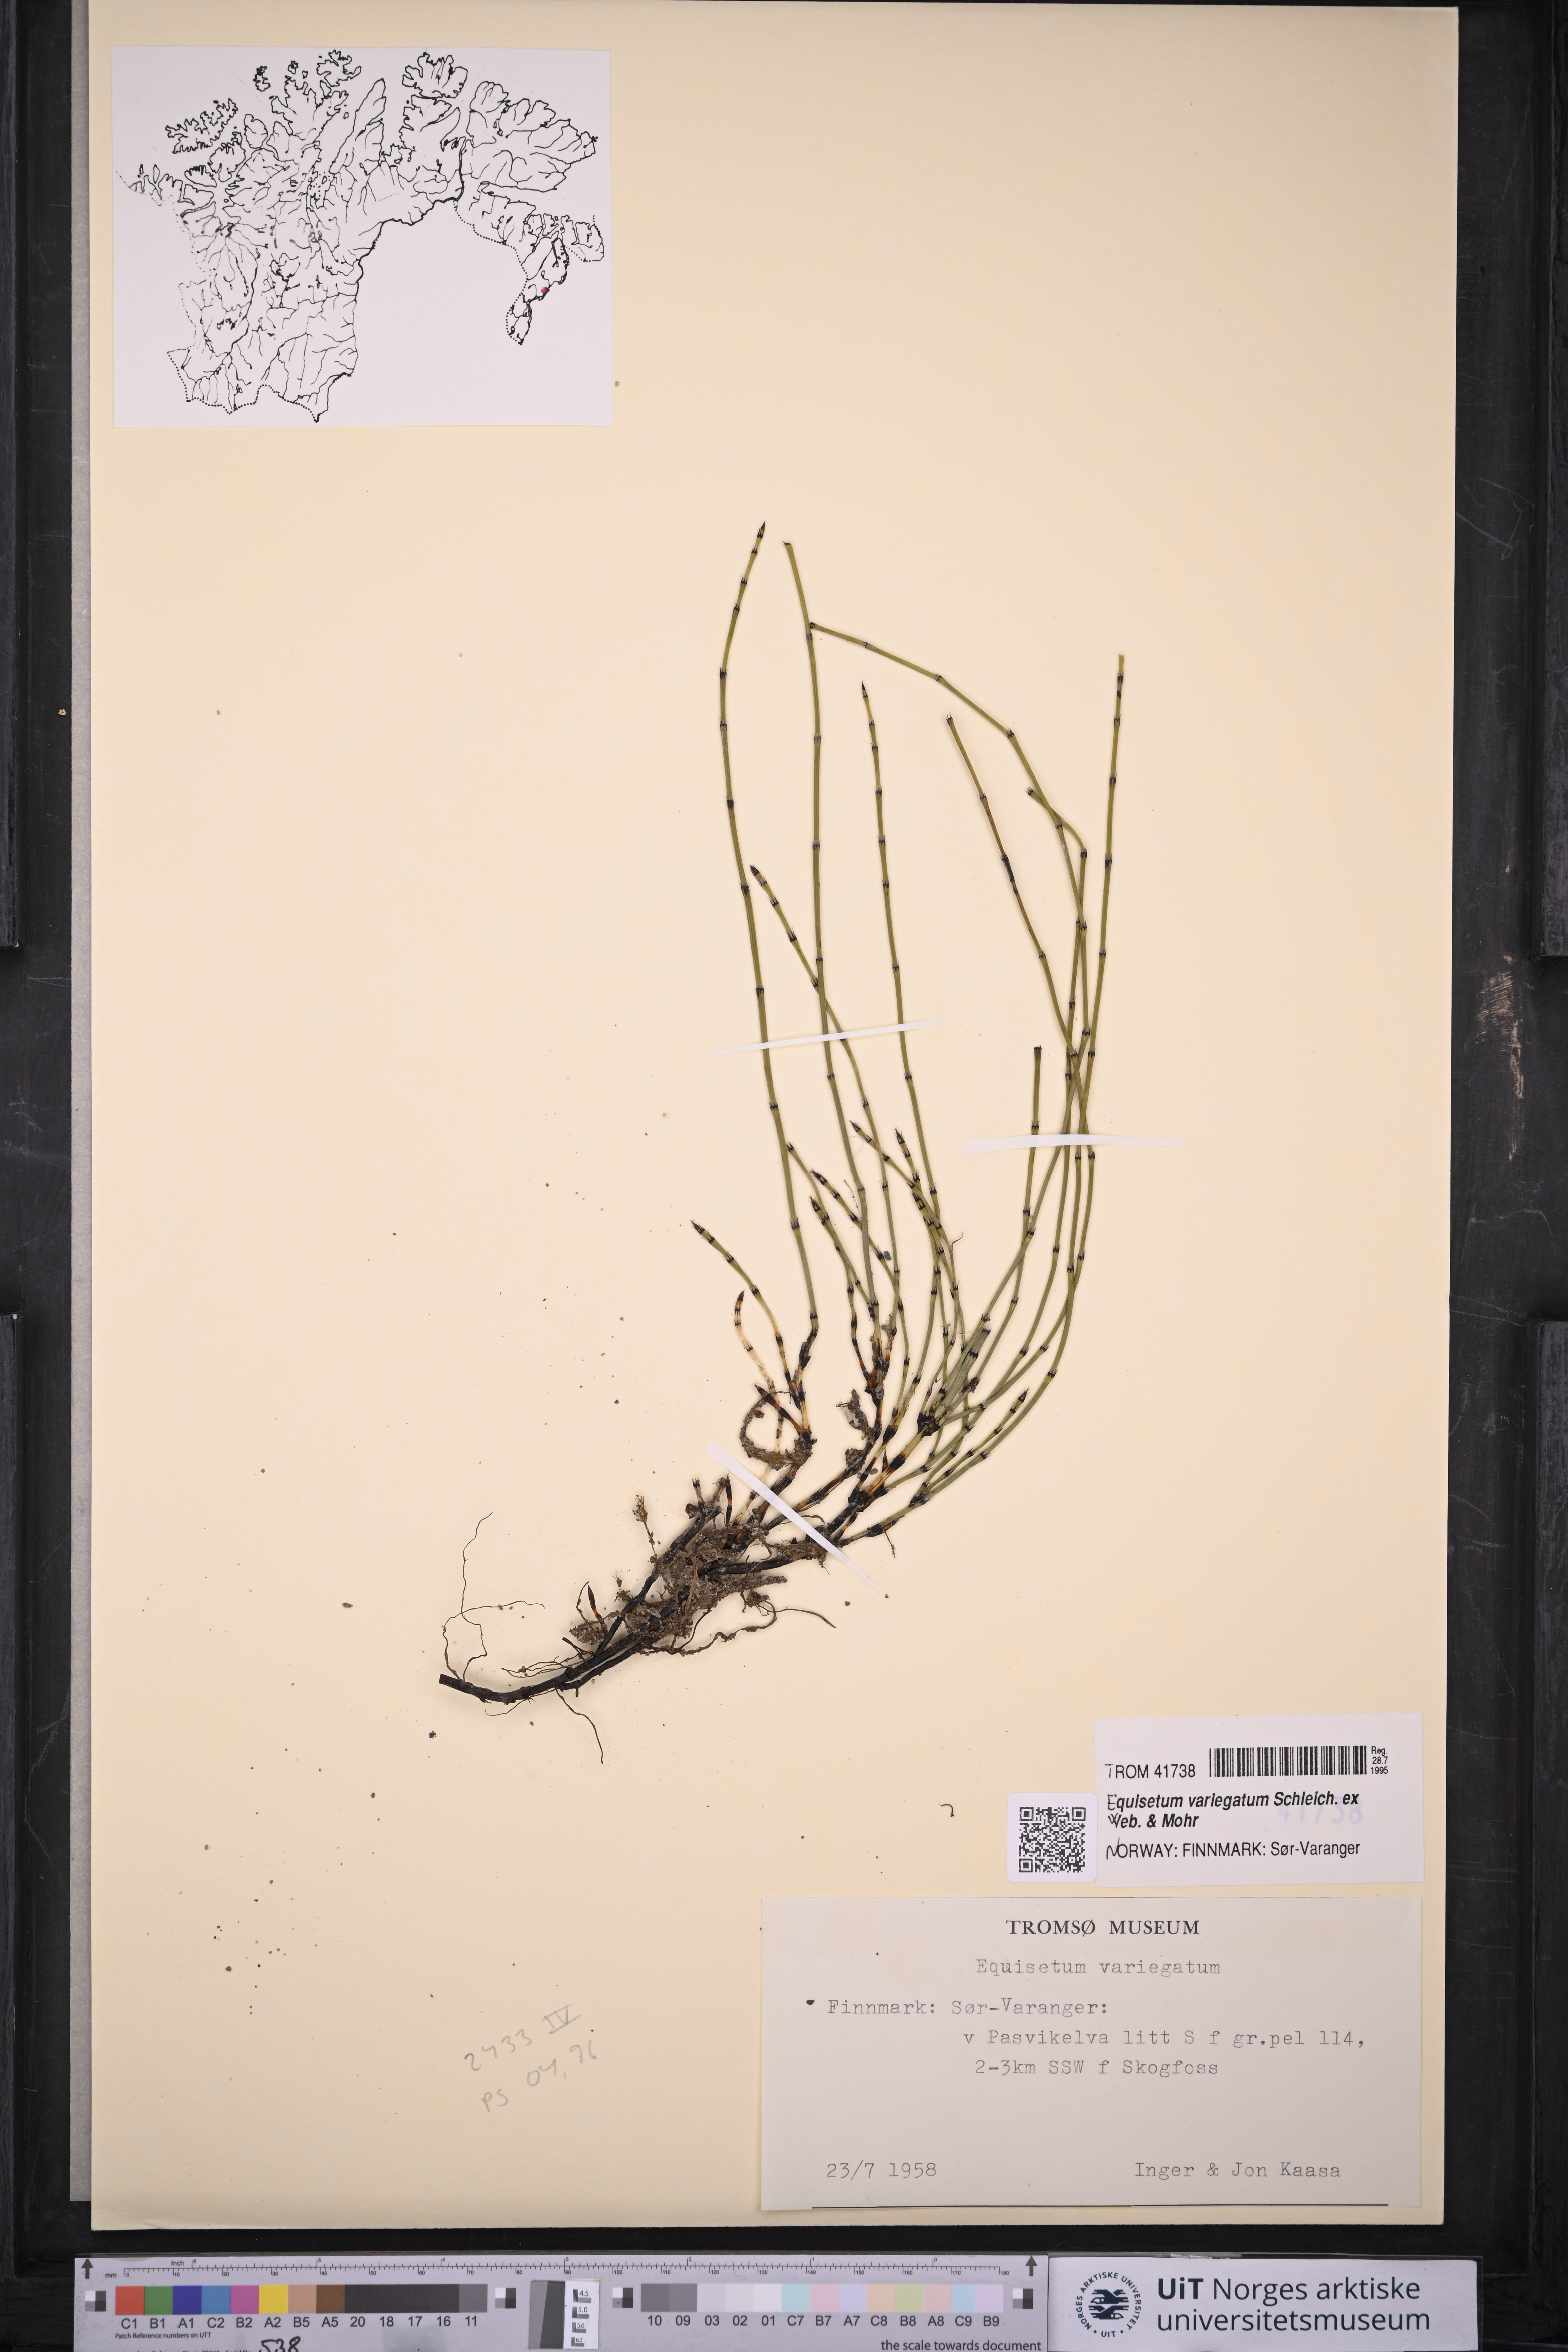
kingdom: Plantae
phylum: Tracheophyta
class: Polypodiopsida
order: Equisetales
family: Equisetaceae
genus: Equisetum
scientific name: Equisetum variegatum
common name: Variegated horsetail
